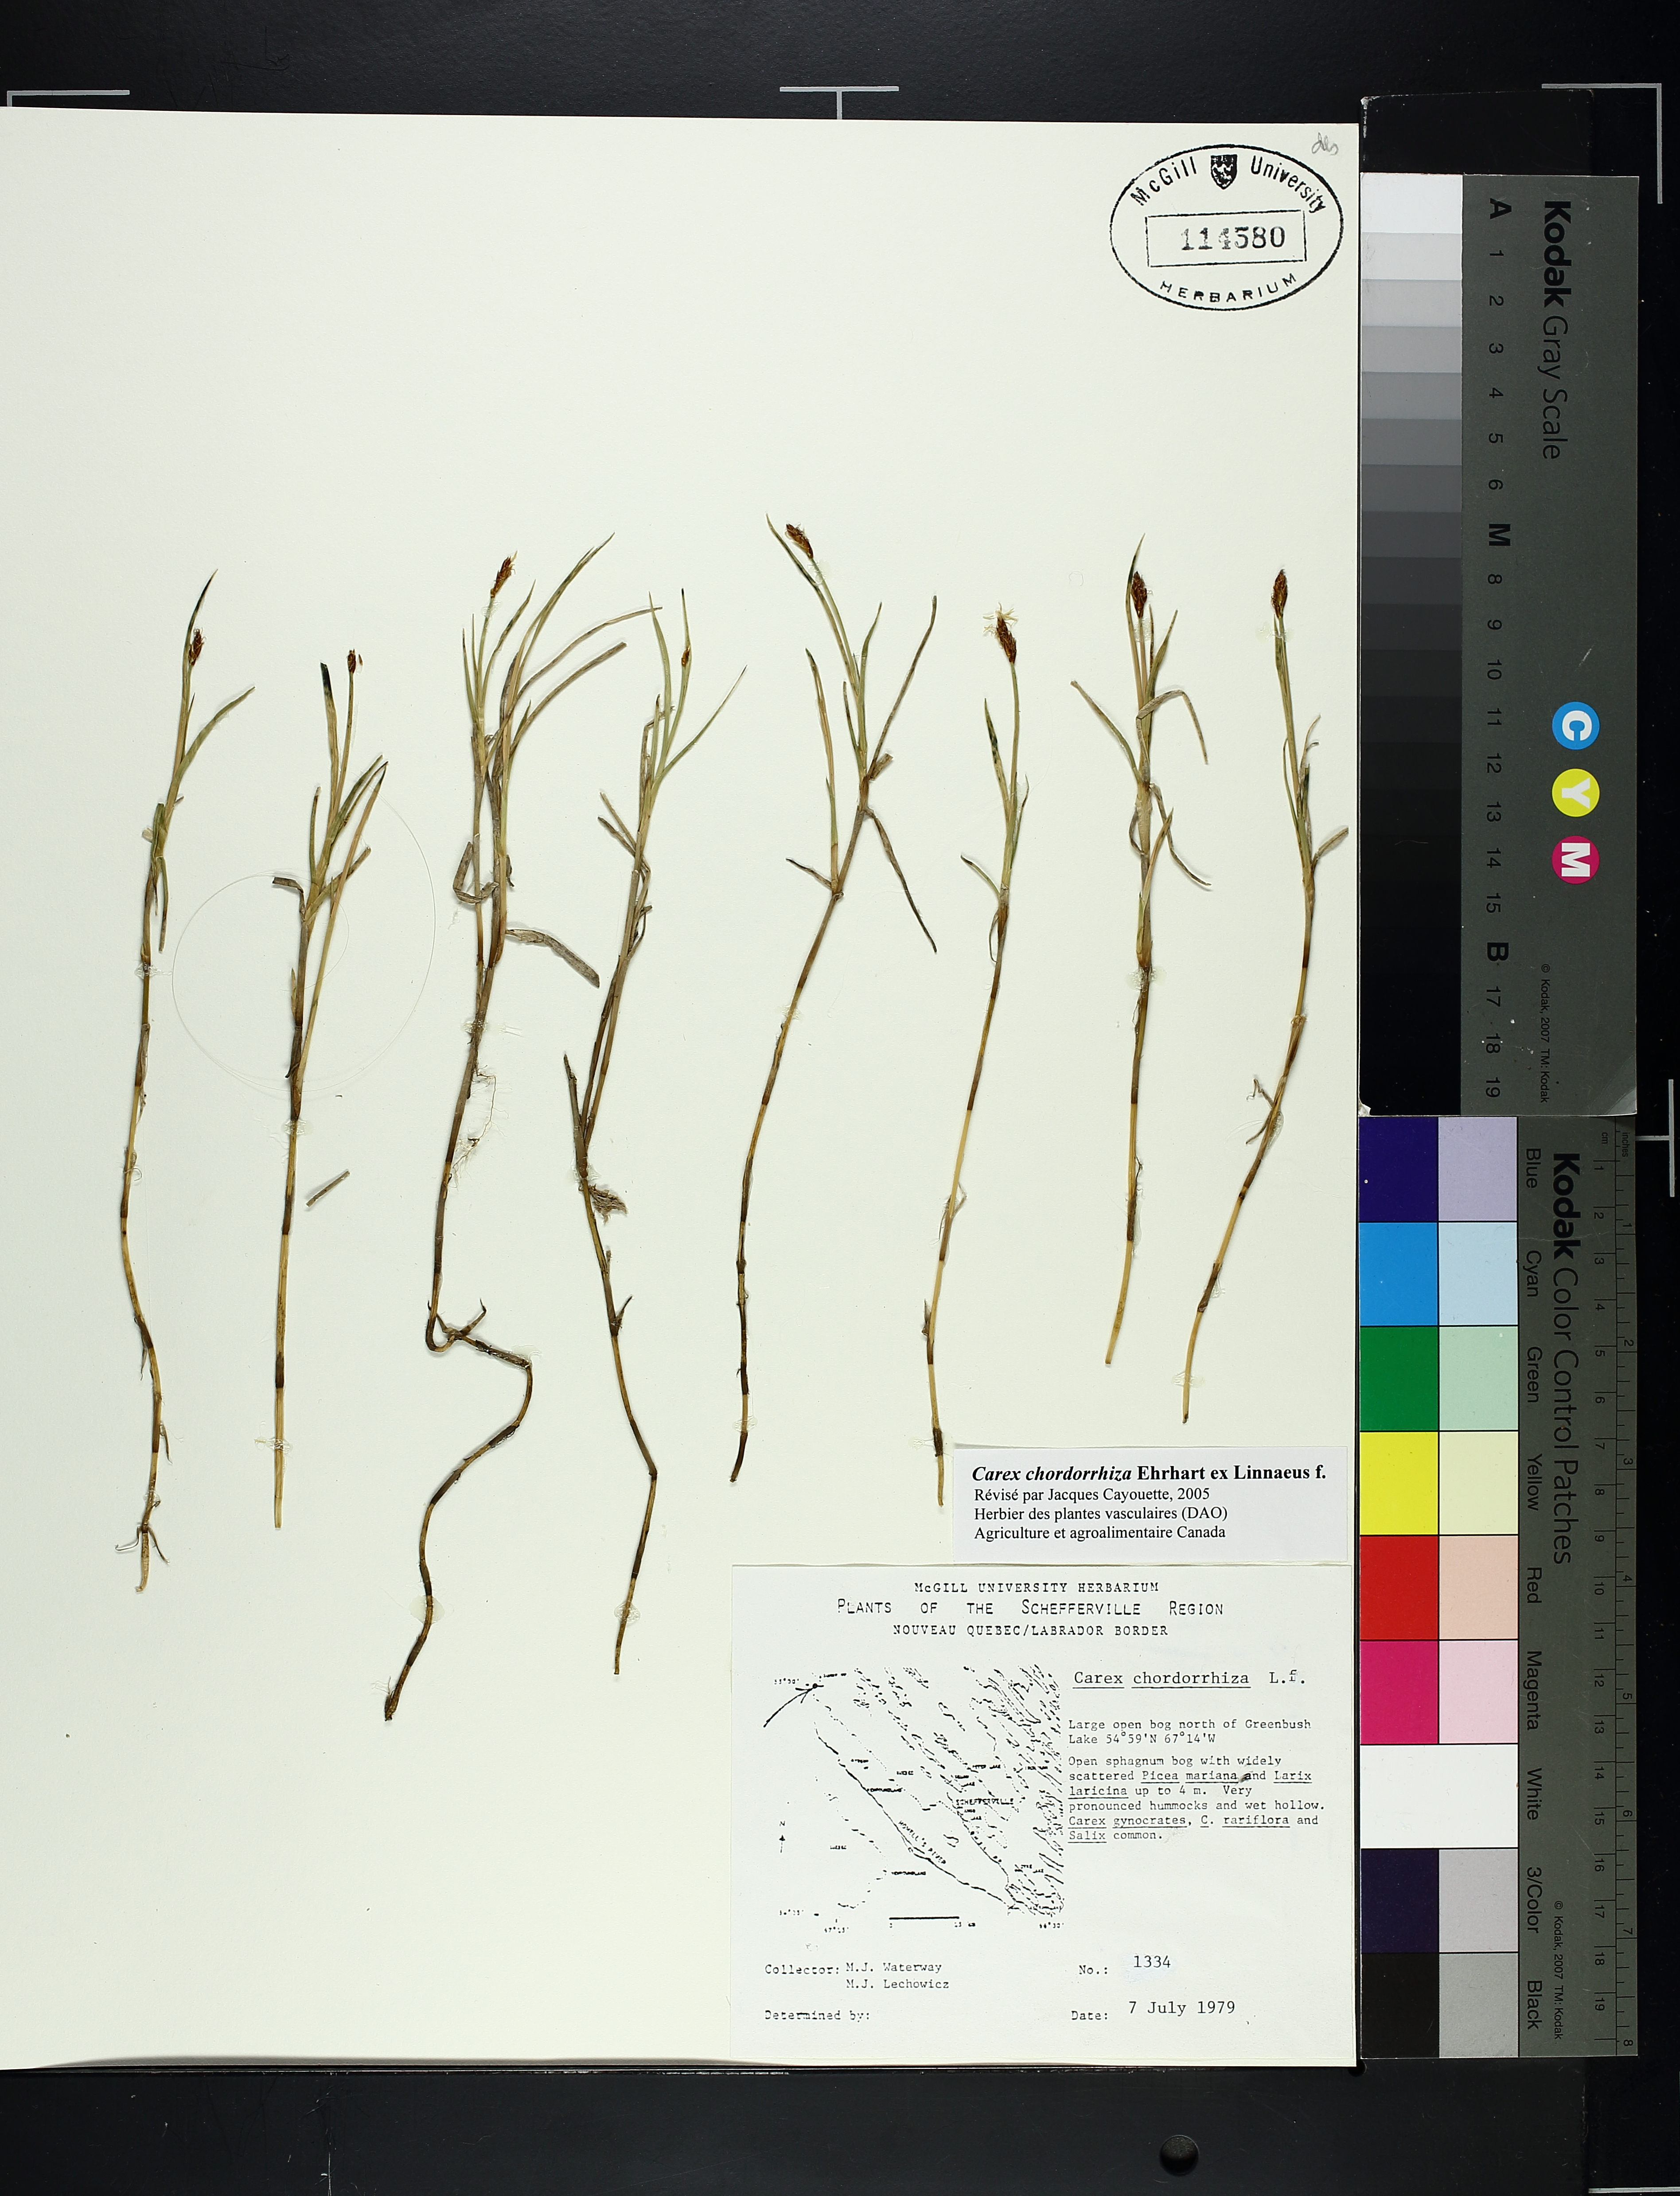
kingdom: Plantae
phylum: Tracheophyta
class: Liliopsida
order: Poales
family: Cyperaceae
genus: Carex
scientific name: Carex
